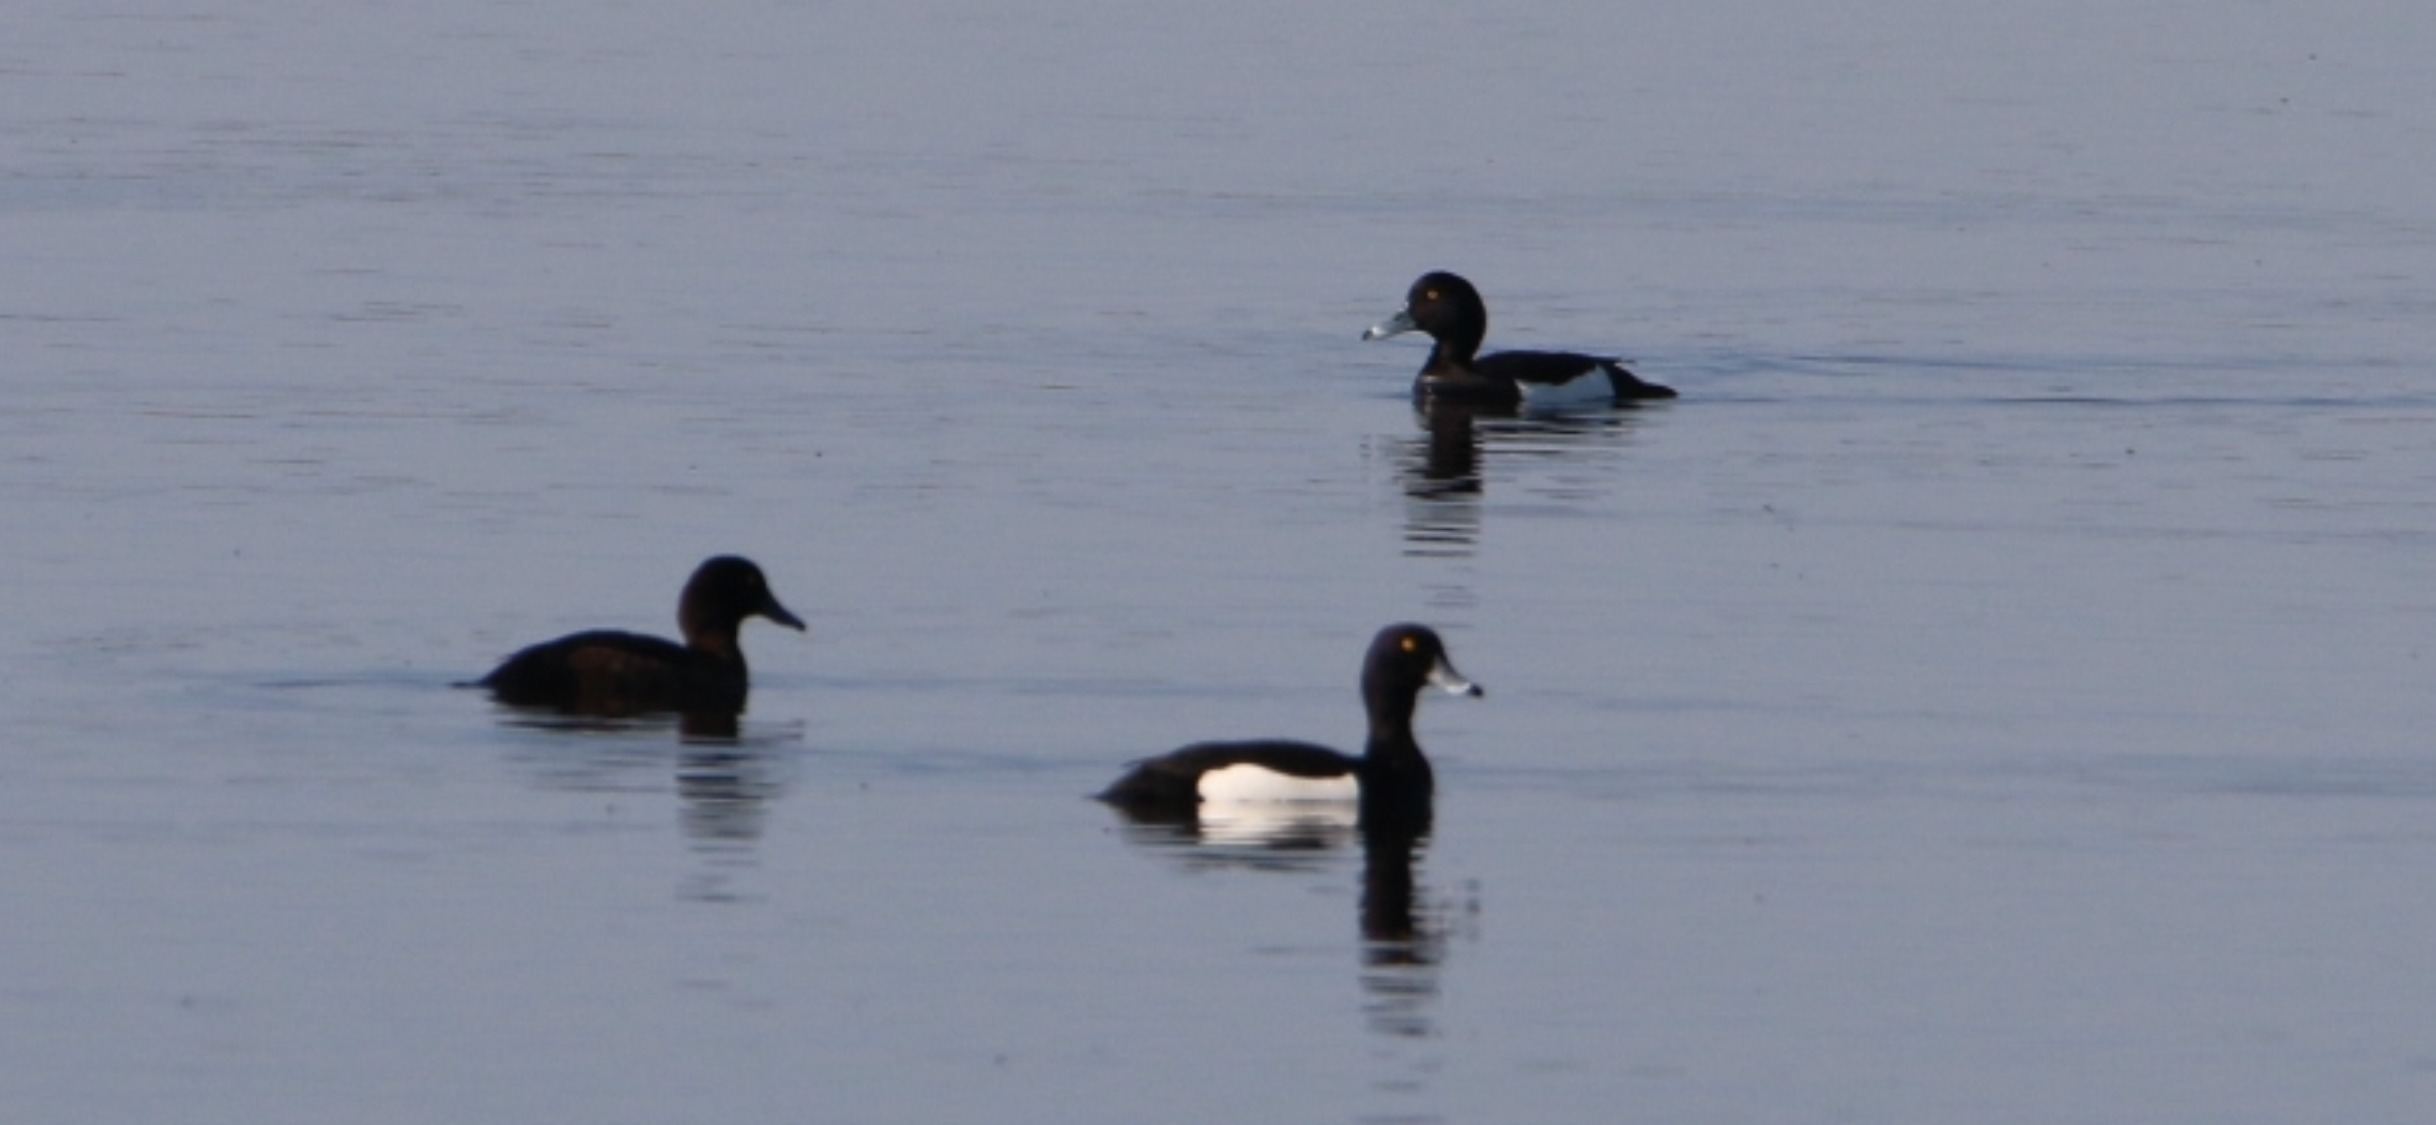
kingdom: Animalia
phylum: Chordata
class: Aves
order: Anseriformes
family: Anatidae
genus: Aythya
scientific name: Aythya fuligula
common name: Troldand
